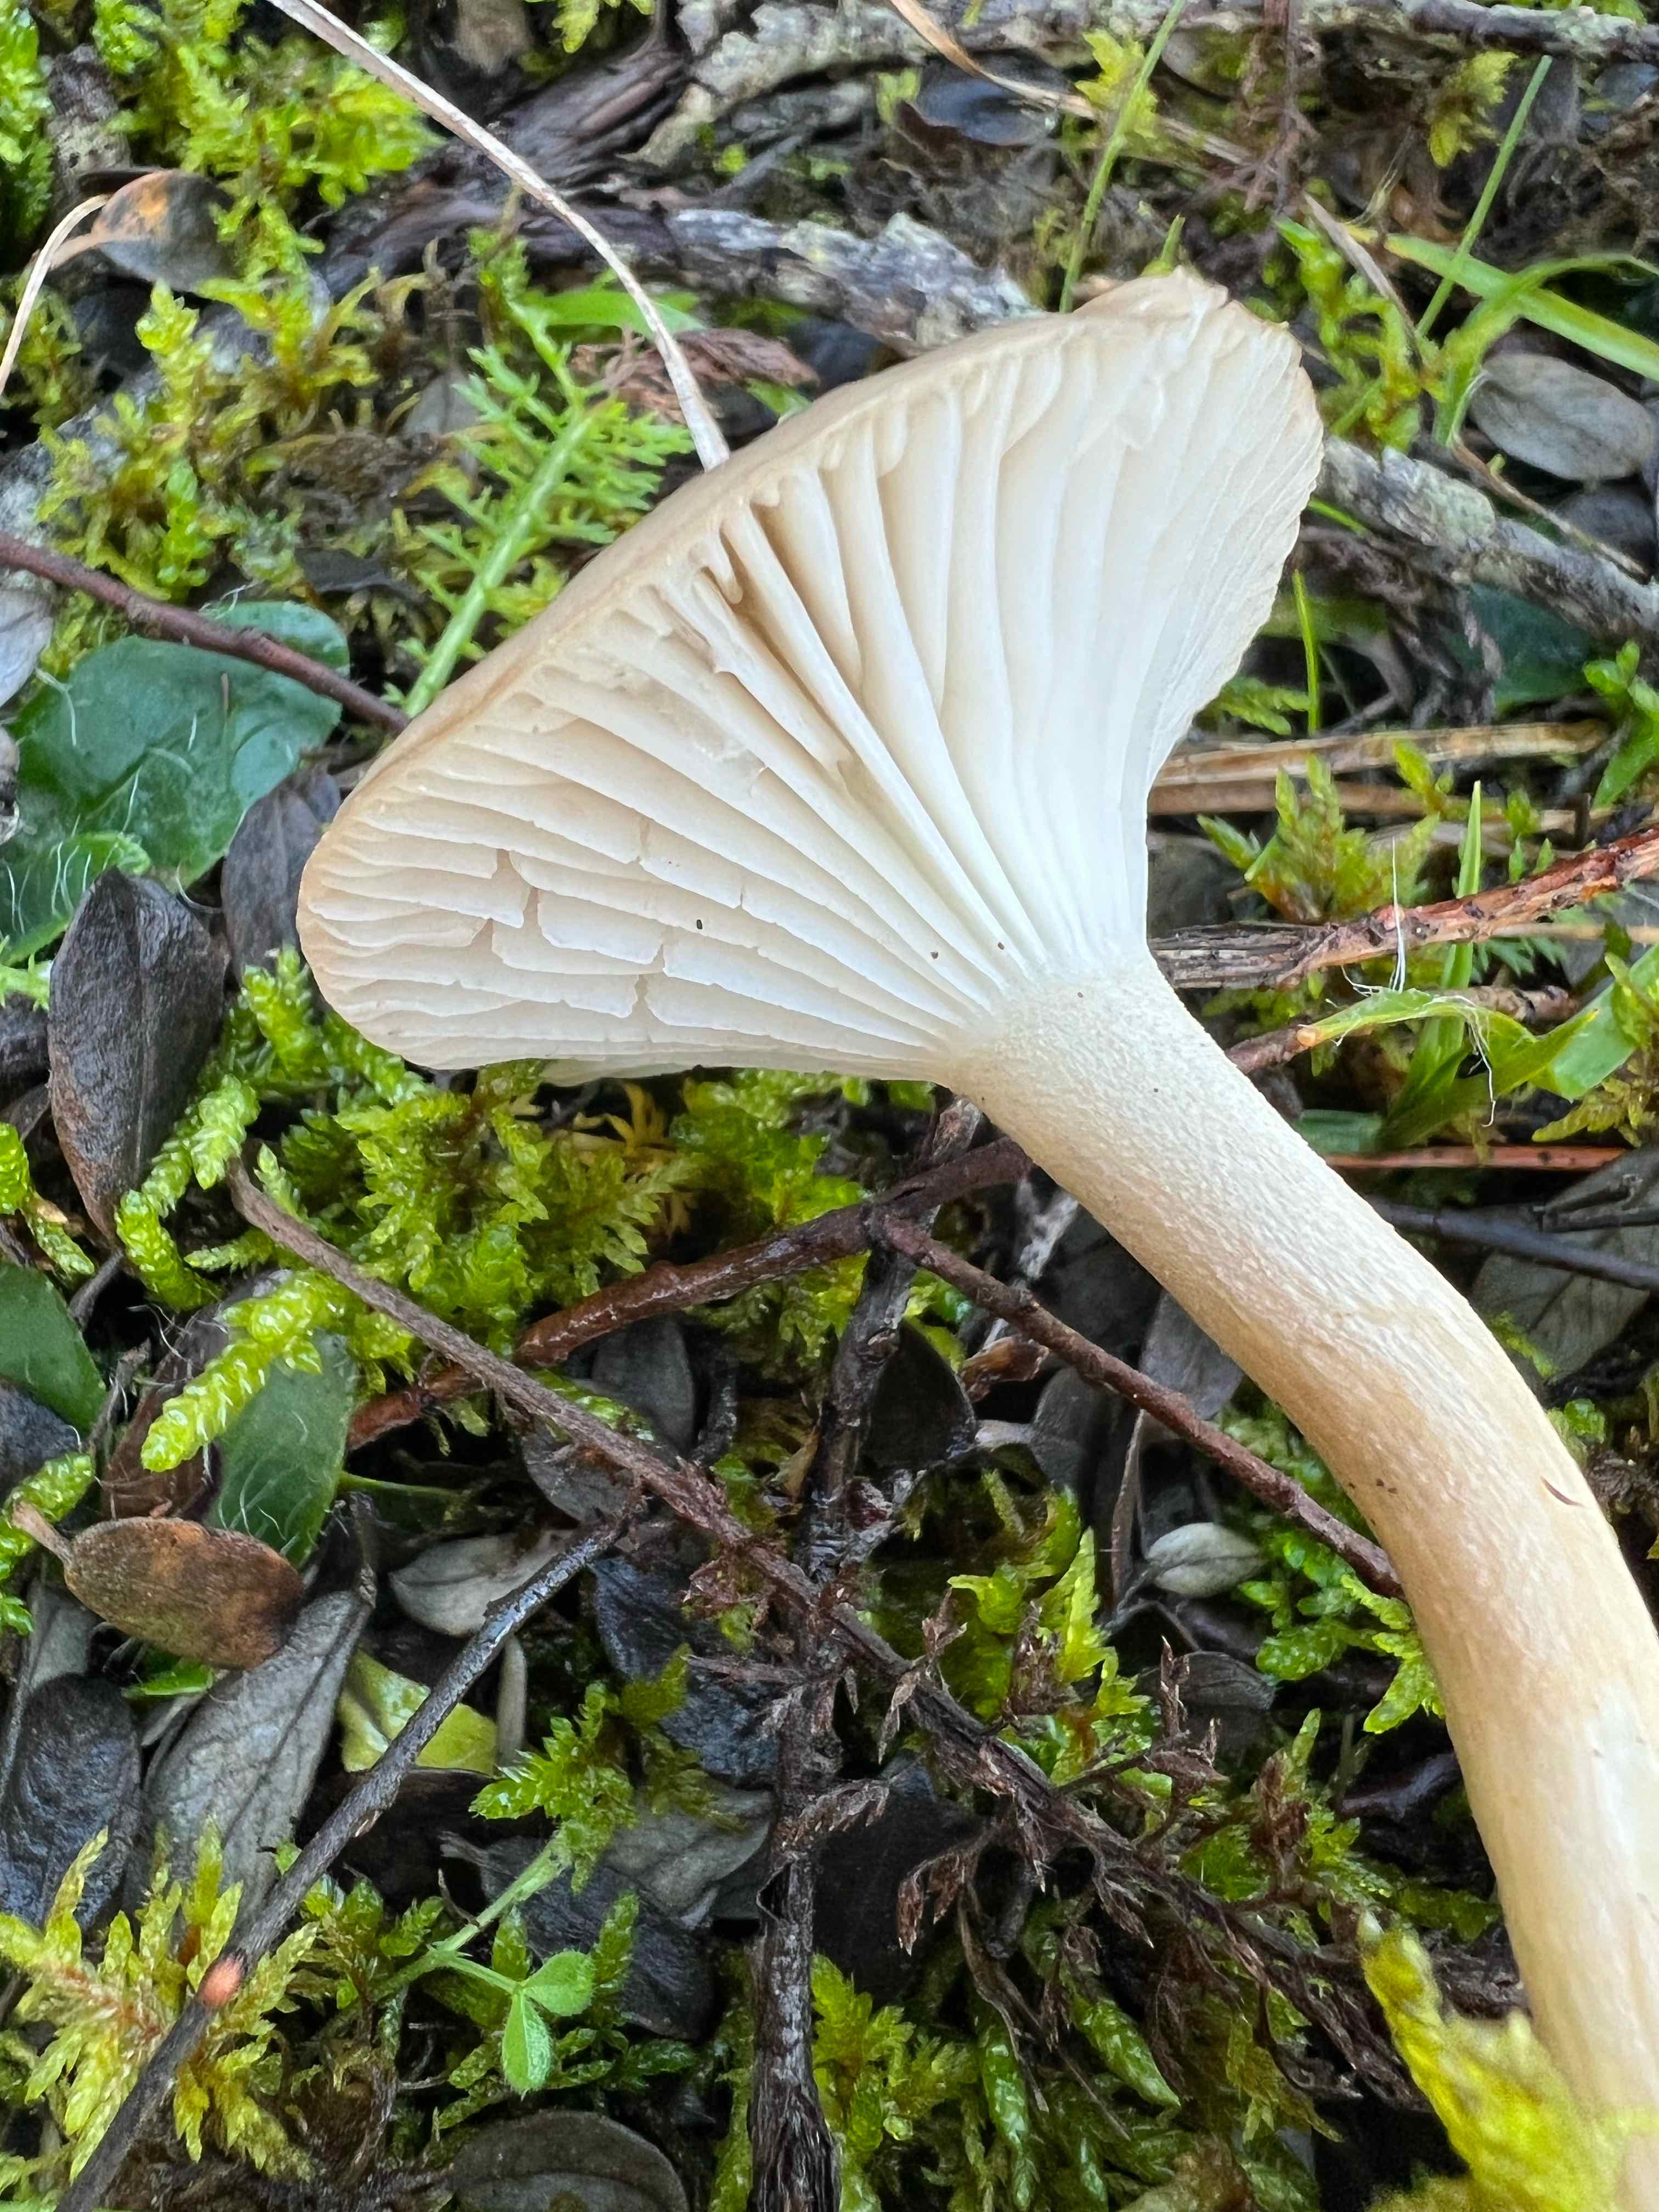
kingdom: Fungi
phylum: Basidiomycota
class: Agaricomycetes
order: Agaricales
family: Hygrophoraceae
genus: Hygrophorus
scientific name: Hygrophorus pustulatus
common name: mørkprikket sneglehat
